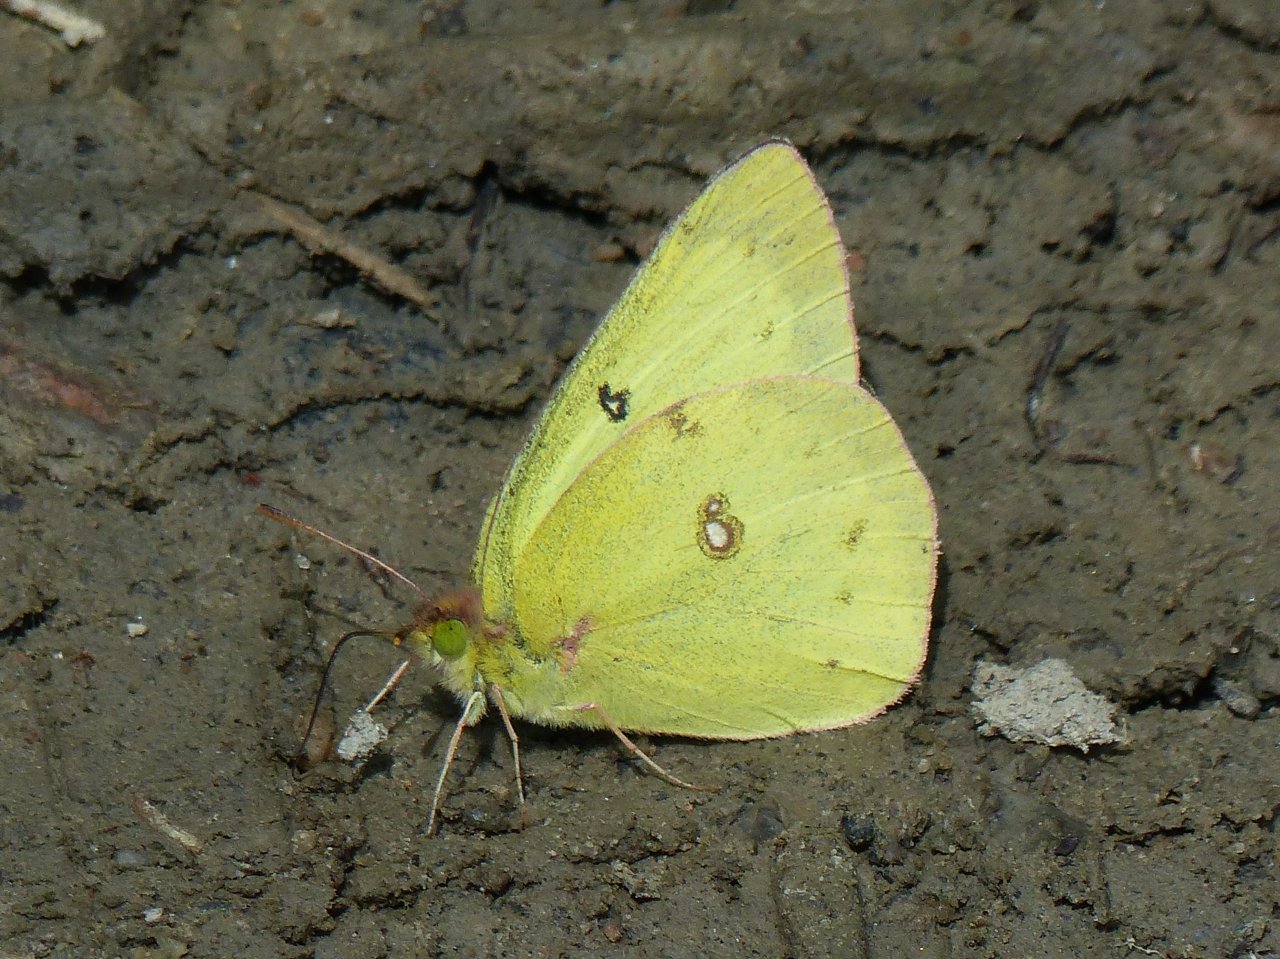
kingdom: Animalia
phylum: Arthropoda
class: Insecta
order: Lepidoptera
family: Pieridae
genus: Colias
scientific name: Colias philodice
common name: Clouded Sulphur
